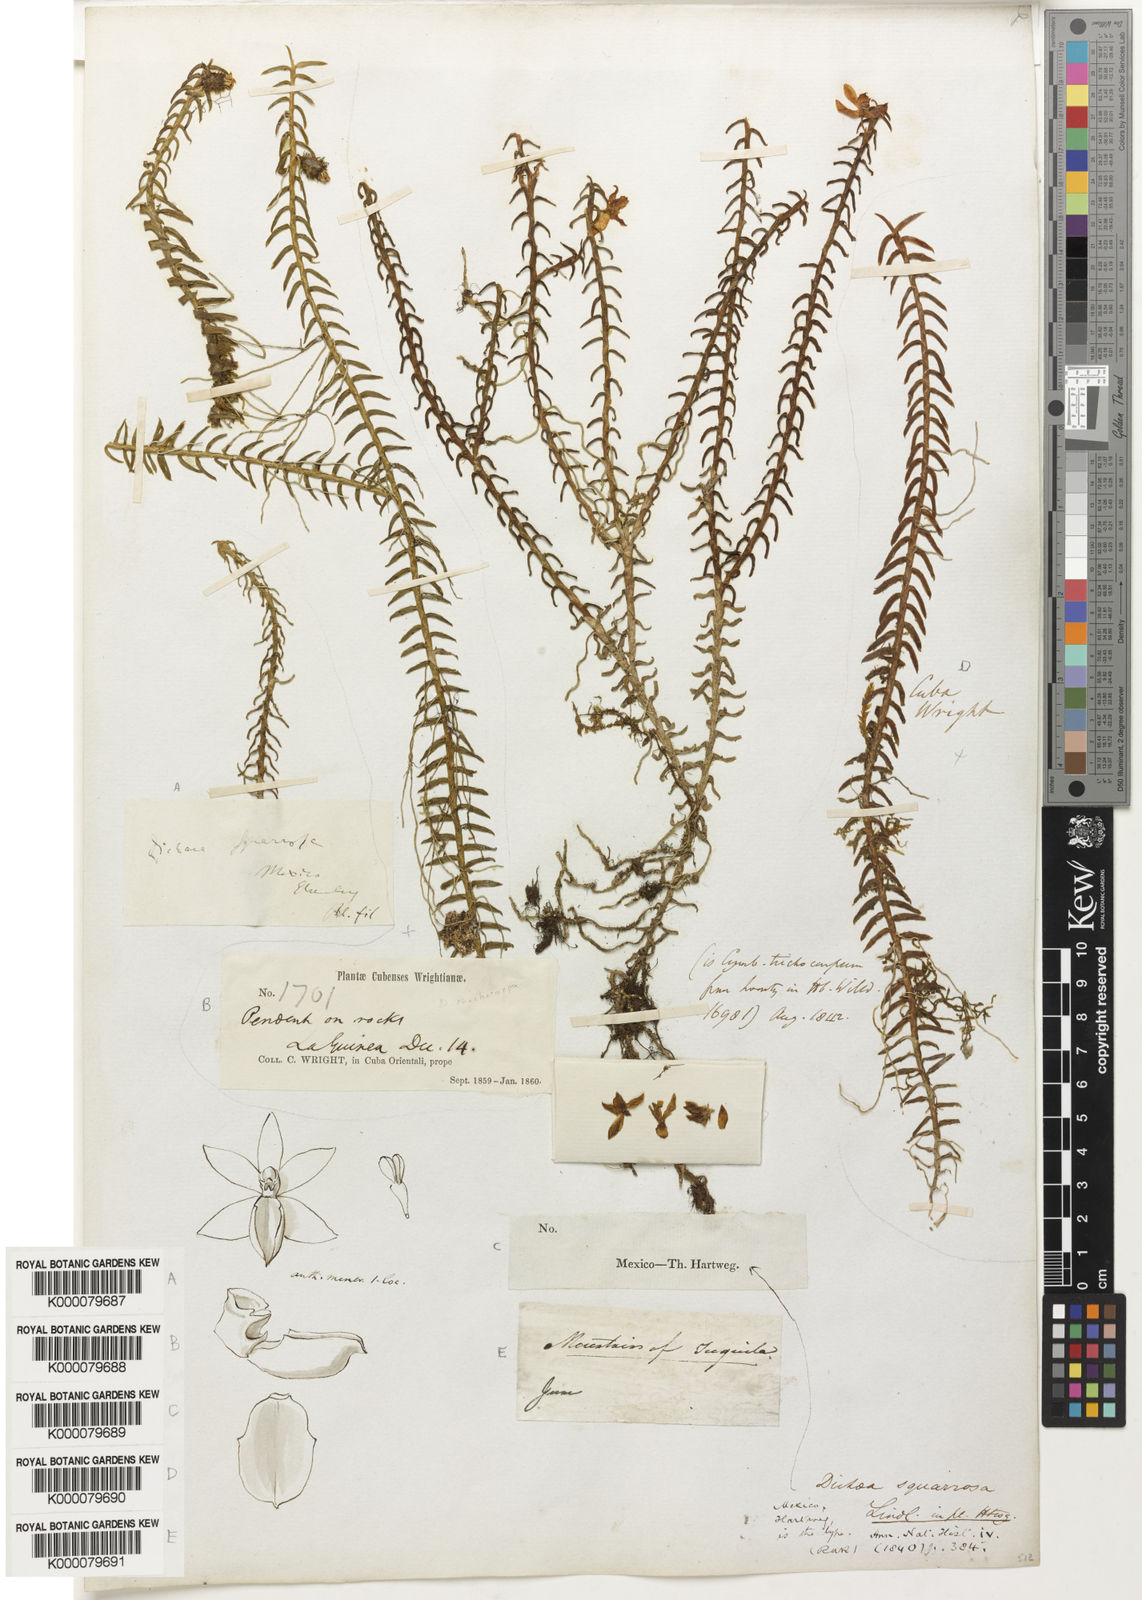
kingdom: Plantae
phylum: Tracheophyta
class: Liliopsida
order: Asparagales
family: Orchidaceae
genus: Dichaea
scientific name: Dichaea squarrosa
